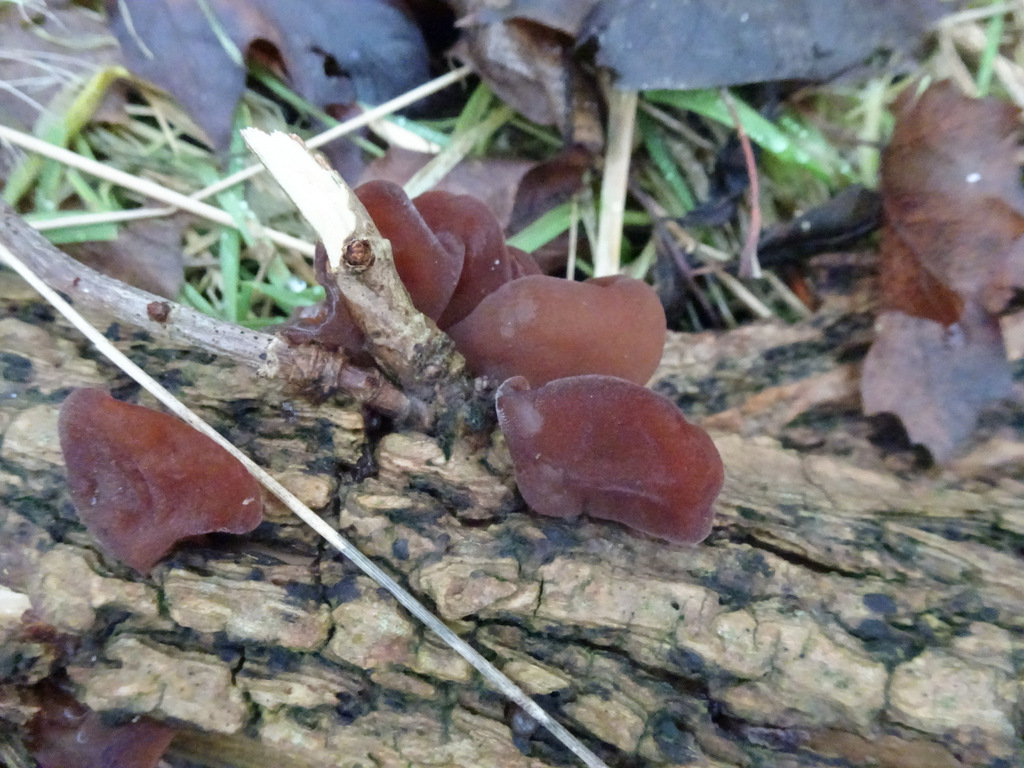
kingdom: Fungi
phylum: Basidiomycota
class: Agaricomycetes
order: Auriculariales
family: Auriculariaceae
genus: Auricularia
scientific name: Auricularia auricula-judae
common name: almindelig judasøre
